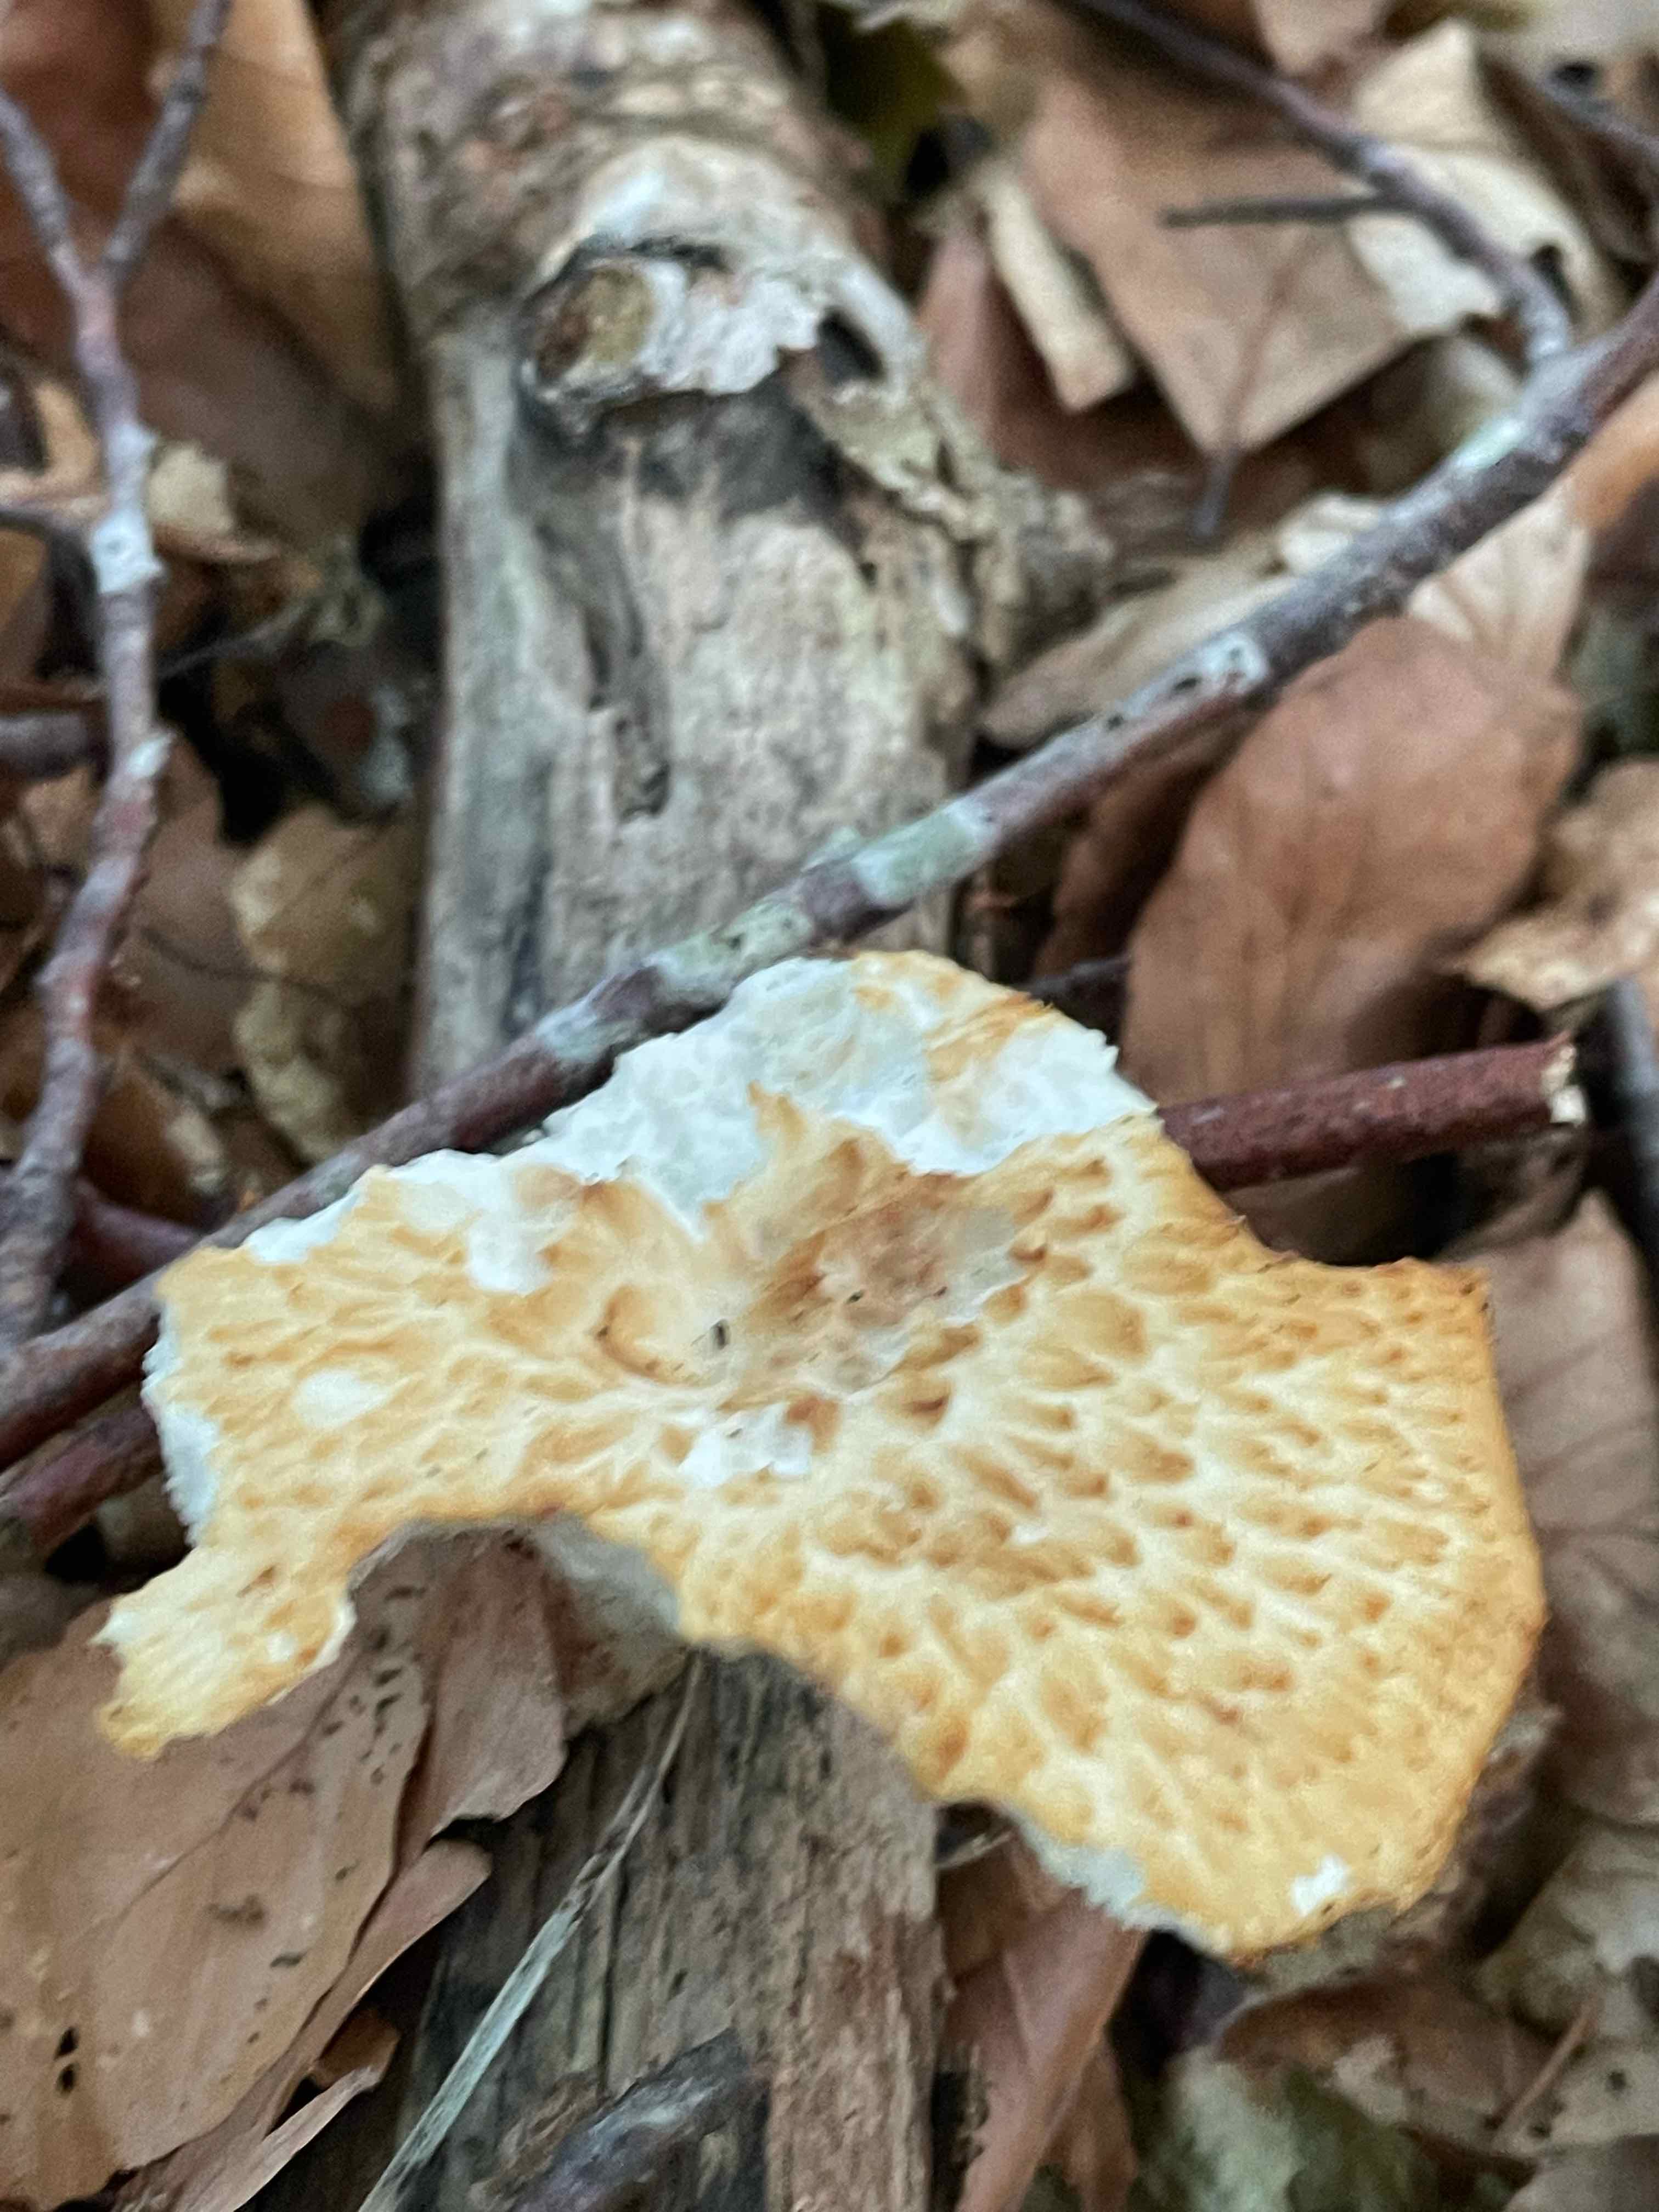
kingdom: Fungi
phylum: Basidiomycota
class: Agaricomycetes
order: Polyporales
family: Polyporaceae
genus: Polyporus
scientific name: Polyporus tuberaster
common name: knoldet stilkporesvamp
